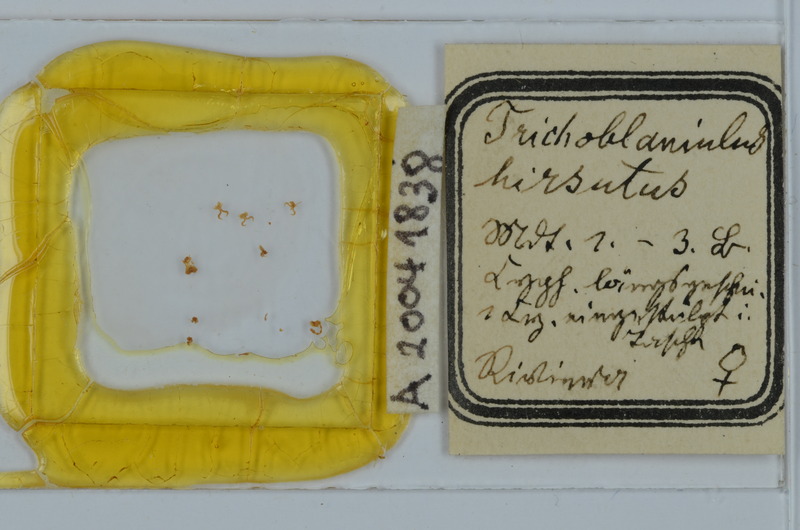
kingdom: Animalia
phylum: Arthropoda
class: Diplopoda
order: Julida
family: Trichoblaniulidae
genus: Trichoblaniulus
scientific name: Trichoblaniulus hirsutus
